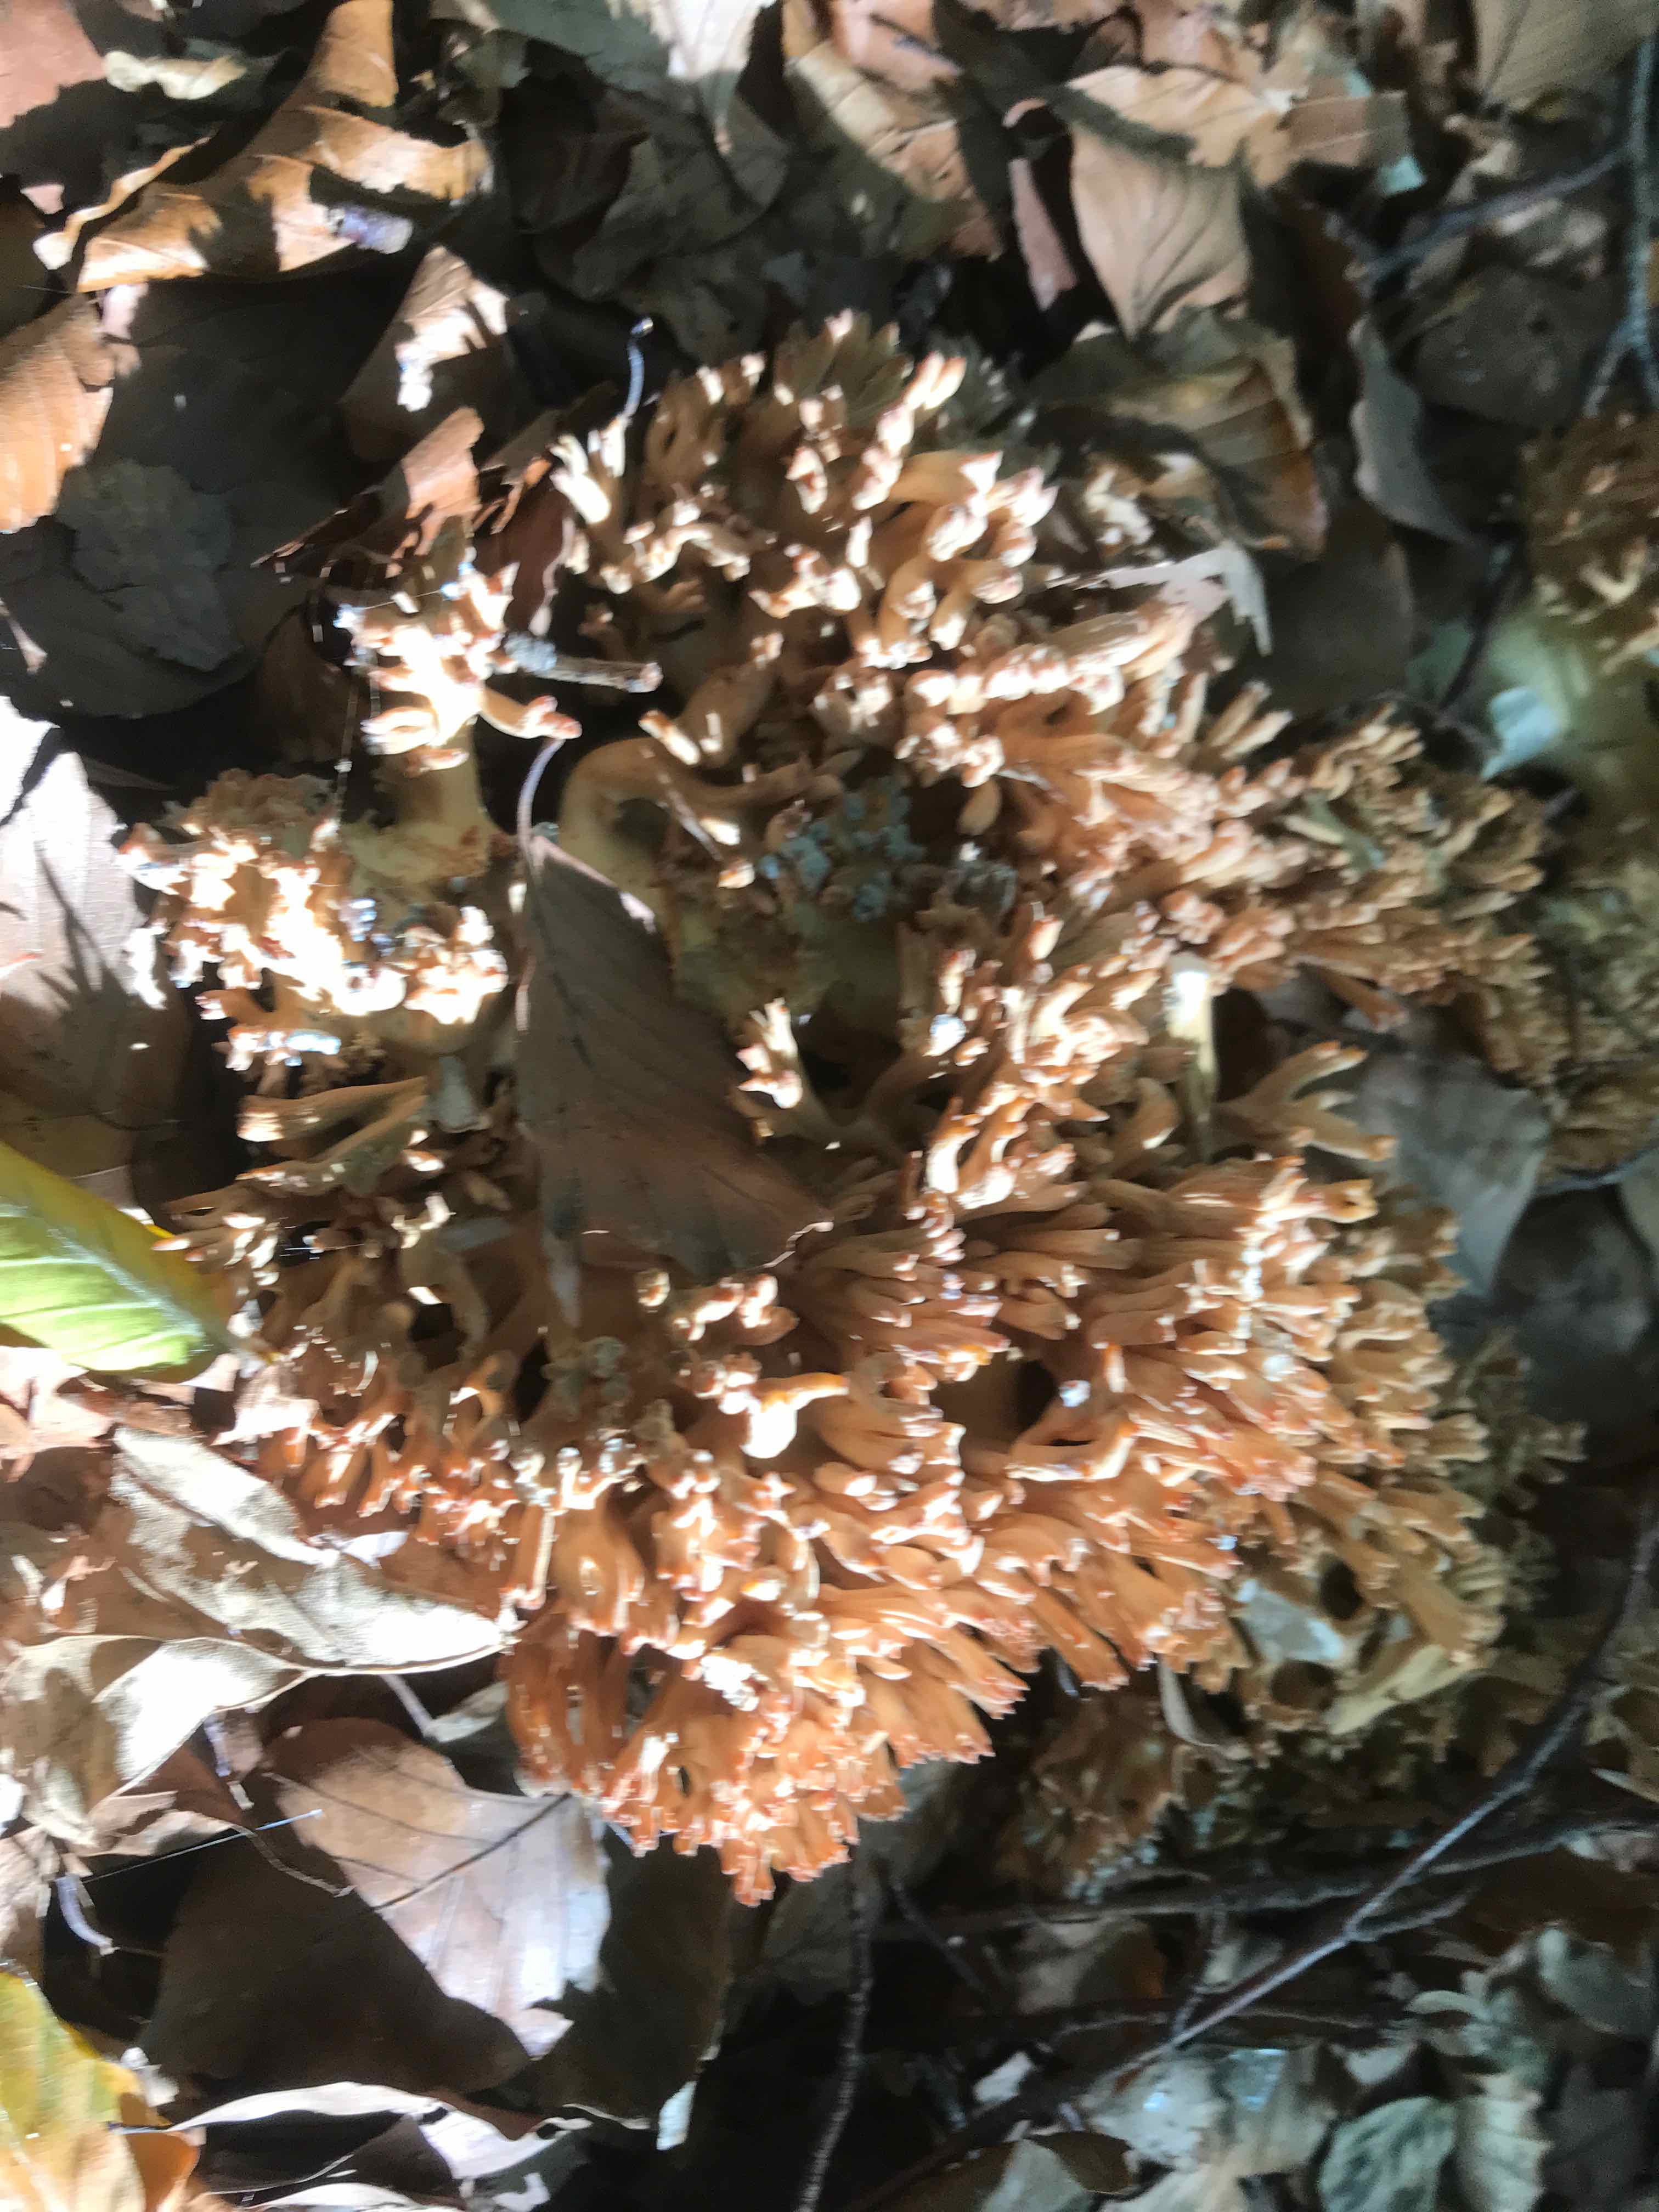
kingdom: Fungi
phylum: Basidiomycota
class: Agaricomycetes
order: Gomphales
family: Gomphaceae
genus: Ramaria
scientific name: Ramaria botrytis
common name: drue-koralsvamp
